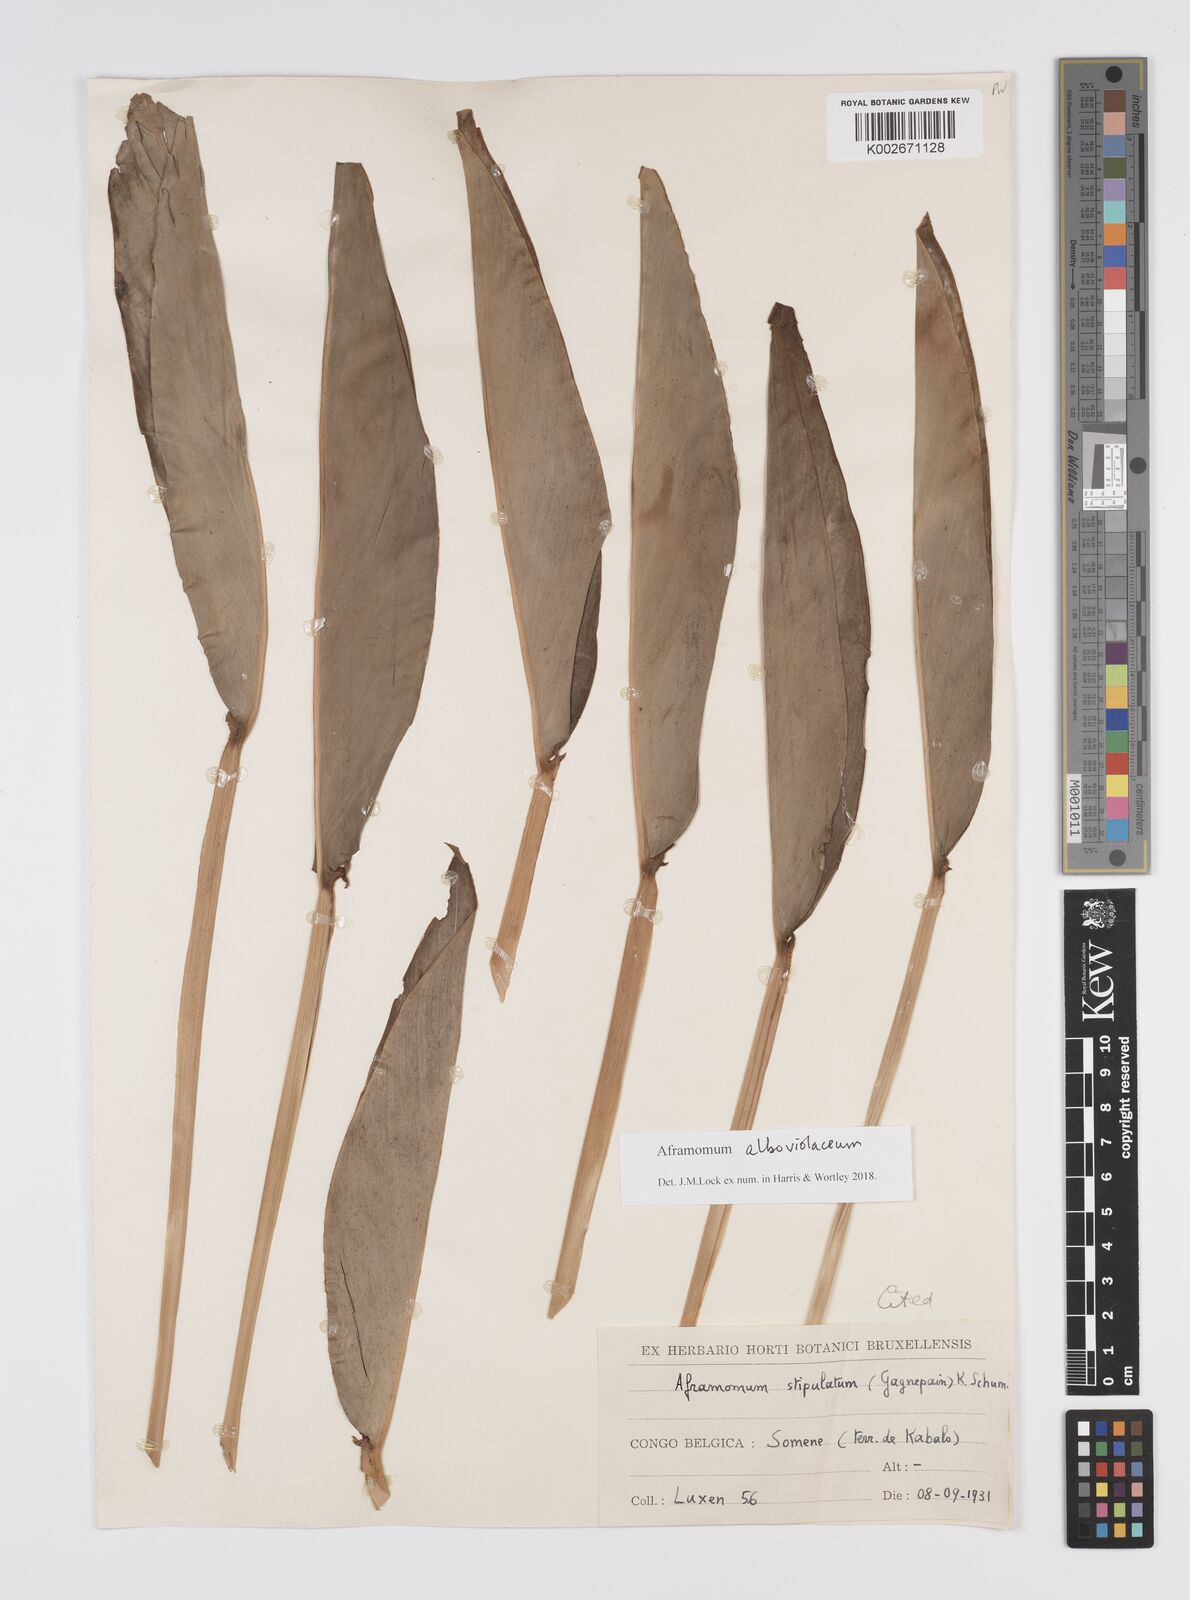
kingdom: Plantae
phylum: Tracheophyta
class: Liliopsida
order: Zingiberales
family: Zingiberaceae
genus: Aframomum
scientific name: Aframomum alboviolaceum
